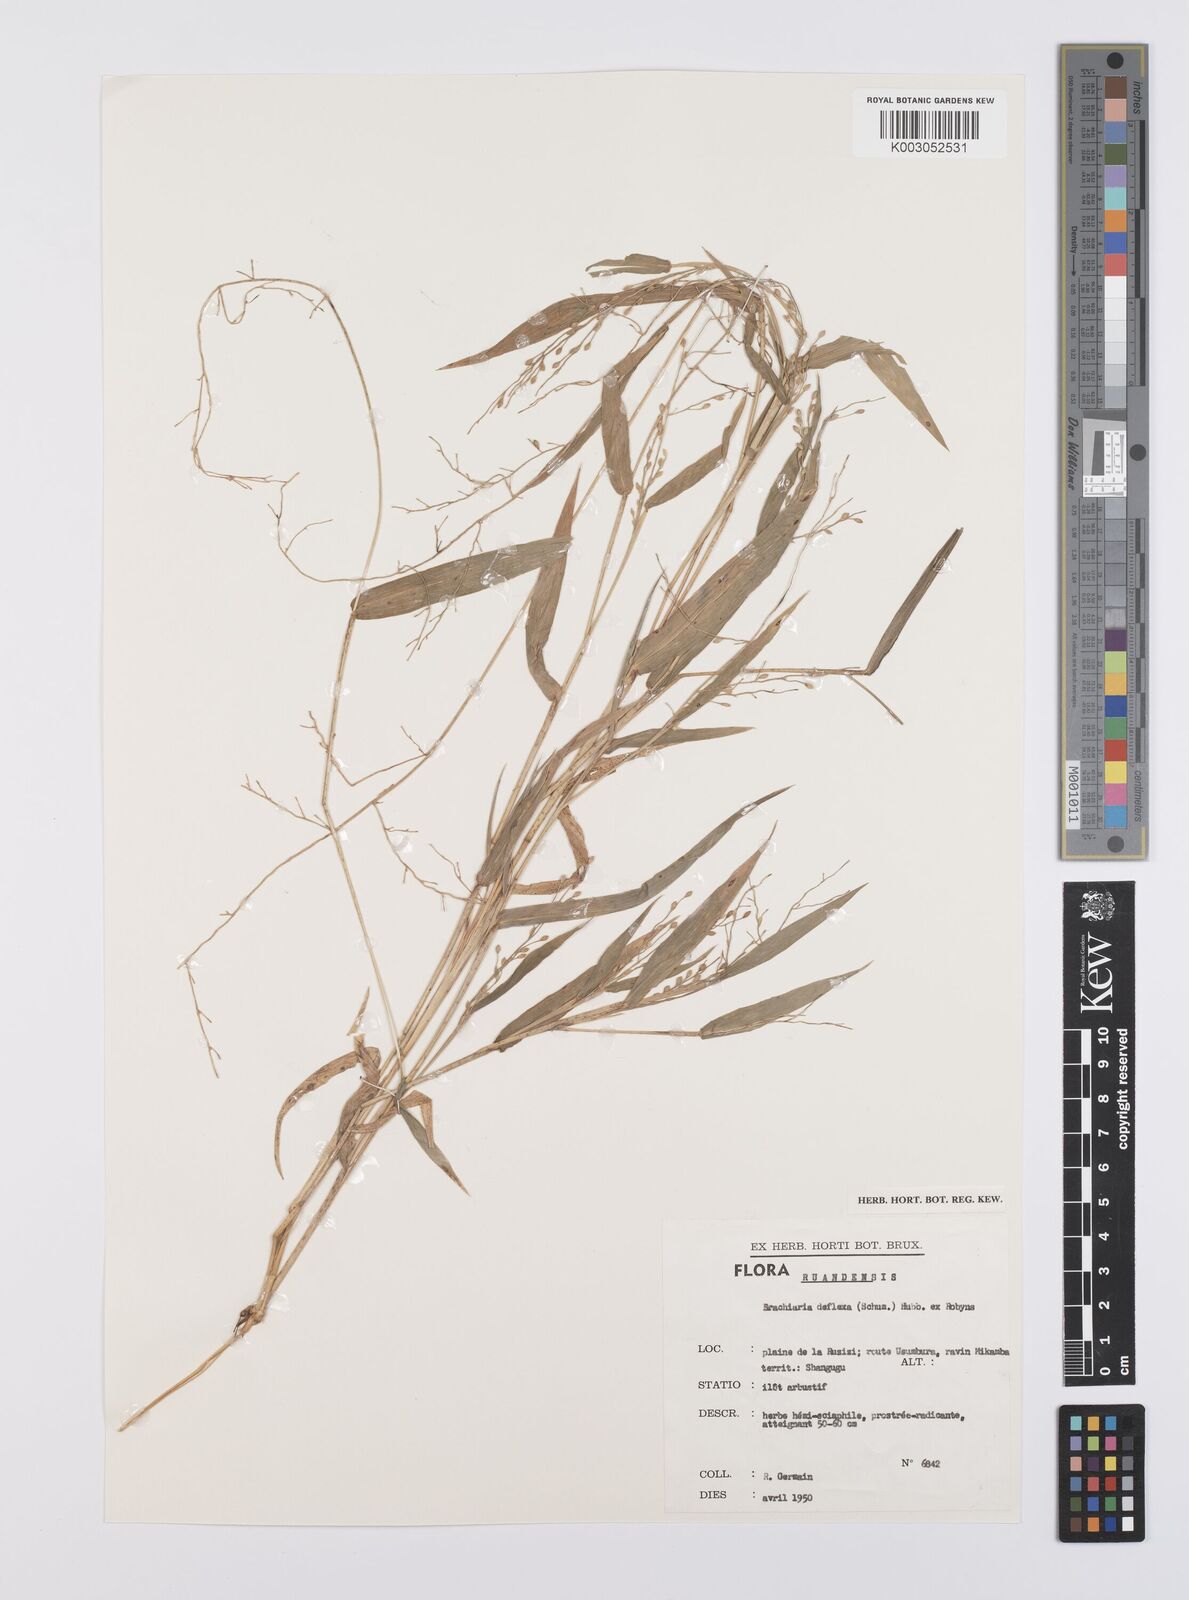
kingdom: Plantae
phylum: Tracheophyta
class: Liliopsida
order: Poales
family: Poaceae
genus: Urochloa
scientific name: Urochloa deflexa
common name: Guinea millet
